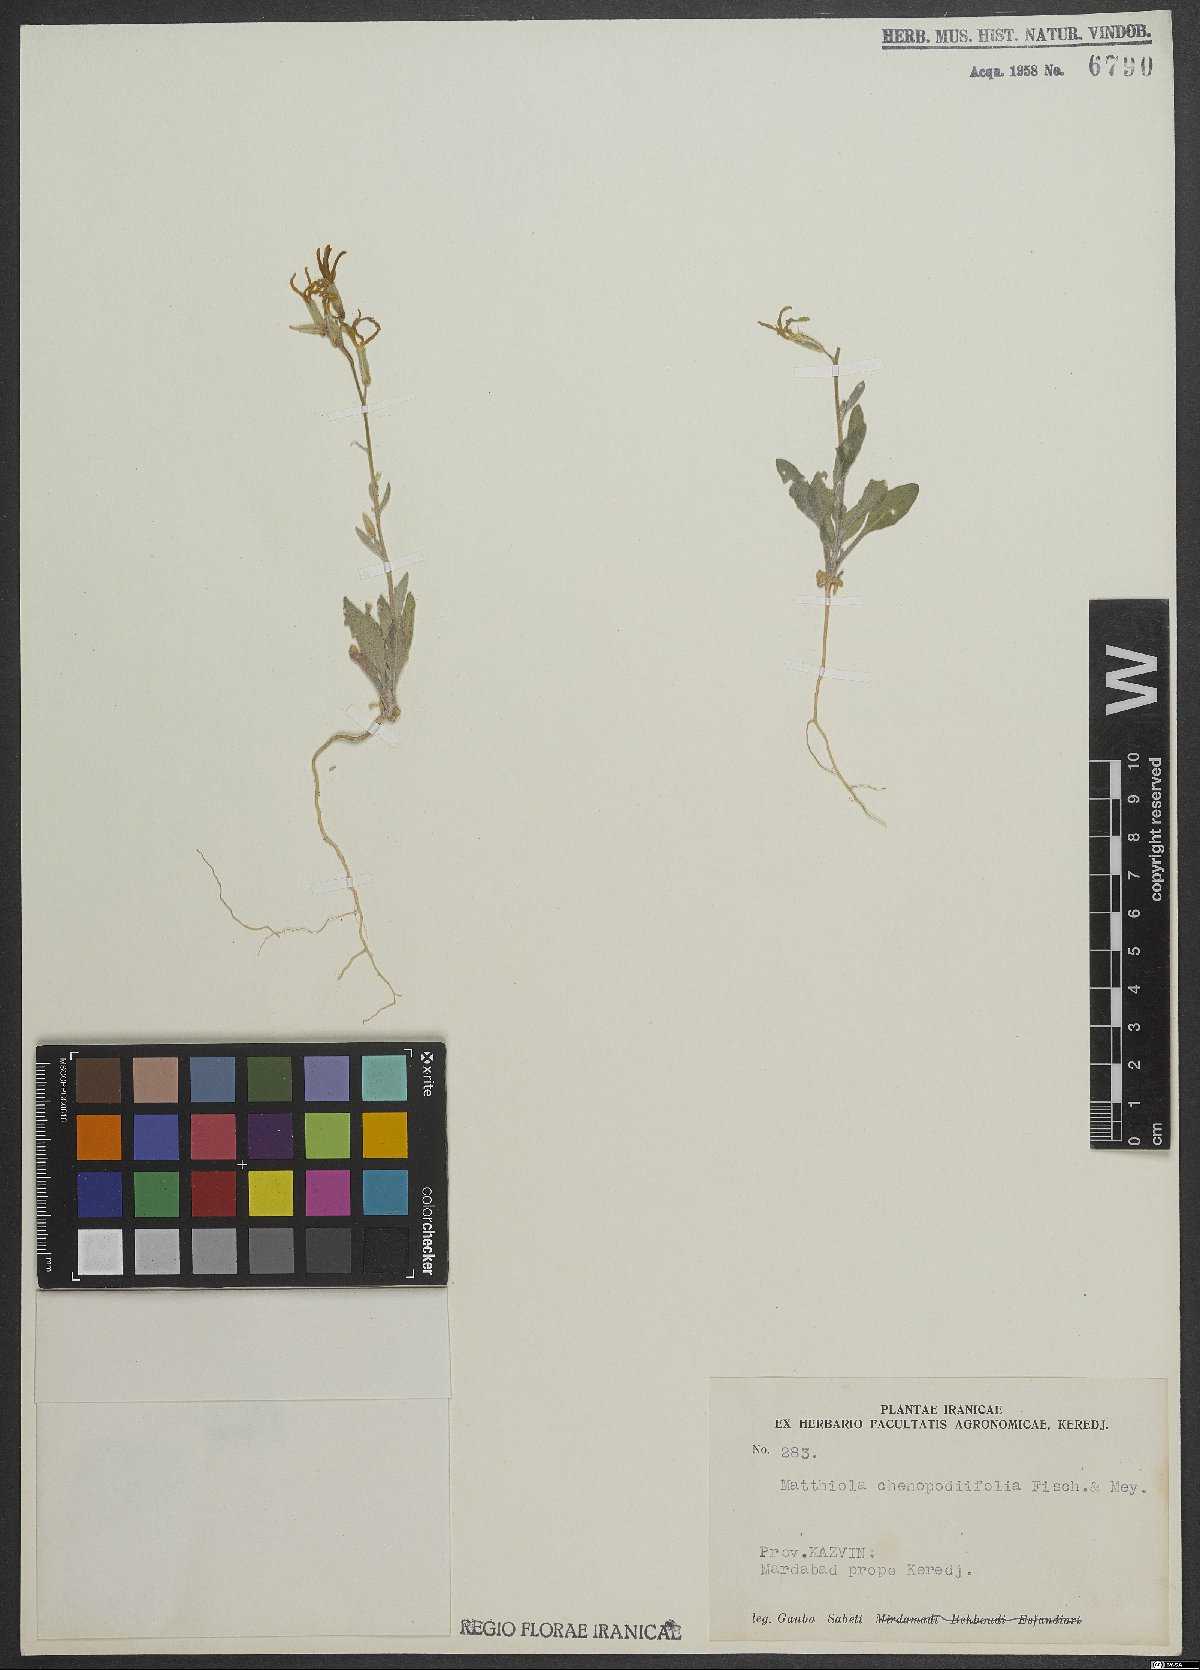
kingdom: Plantae
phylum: Tracheophyta
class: Magnoliopsida
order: Brassicales
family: Brassicaceae
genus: Matthiola
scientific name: Matthiola chenopodiifolia
